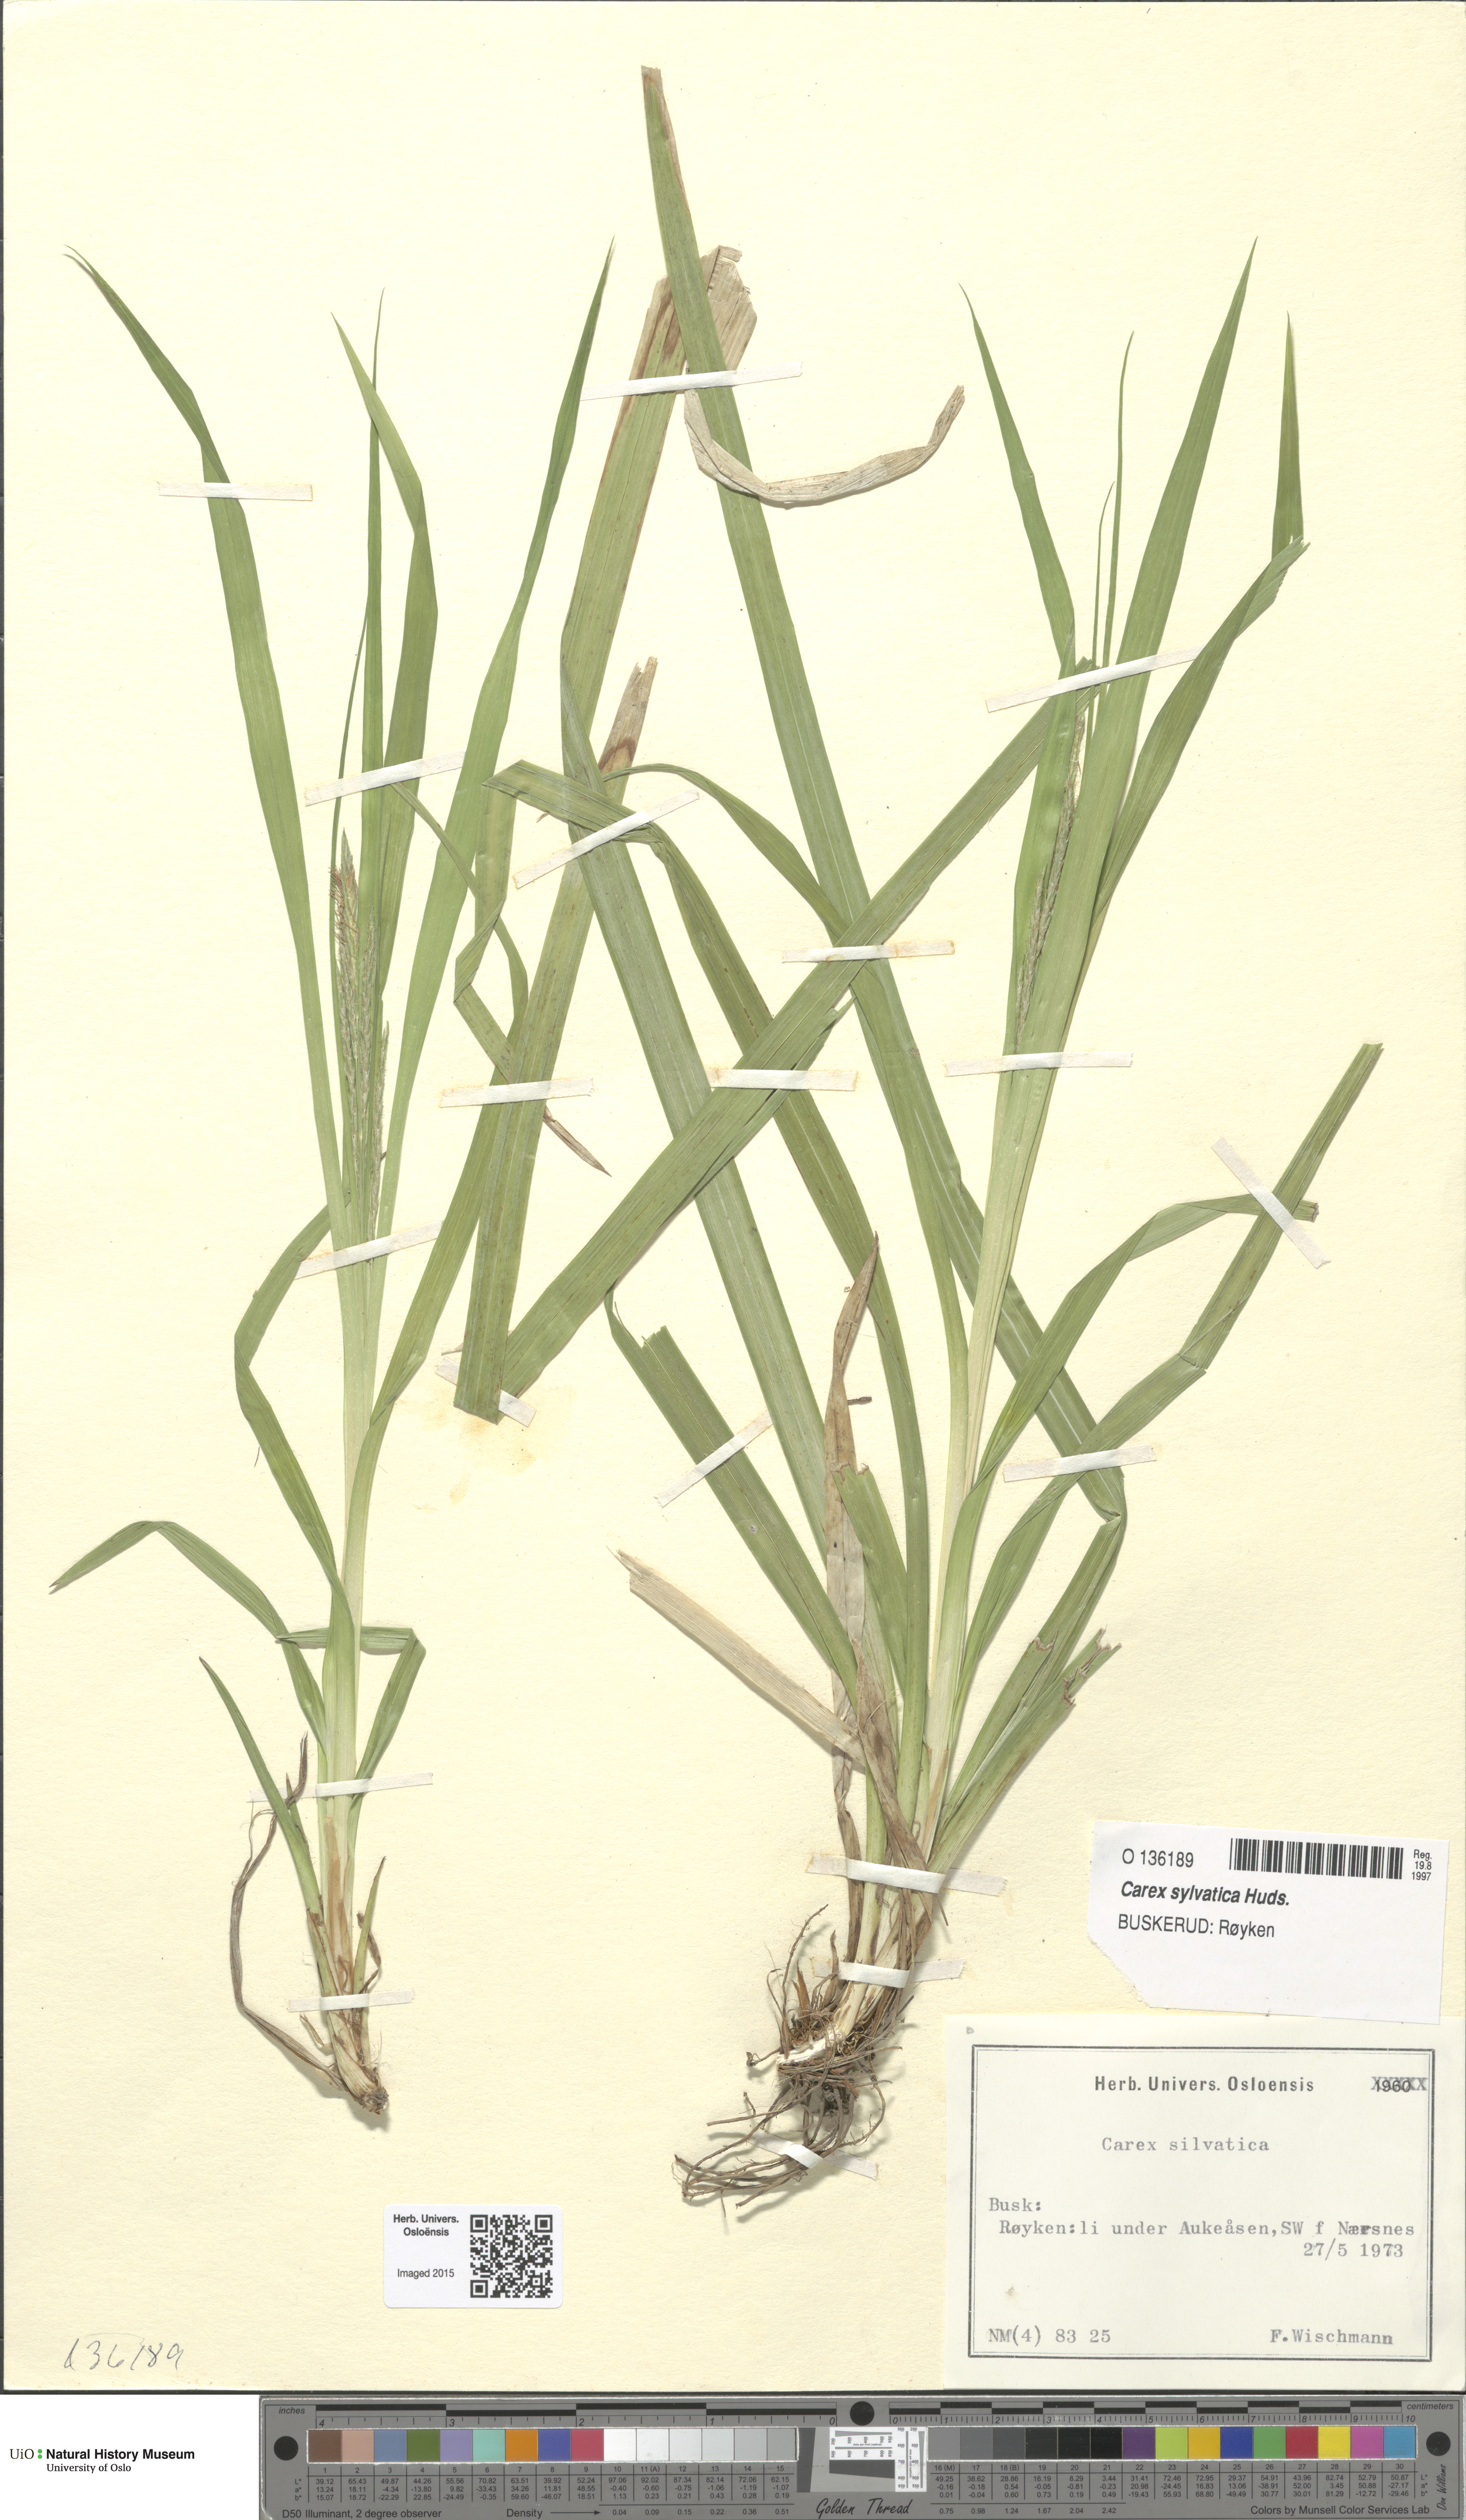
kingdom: Plantae
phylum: Tracheophyta
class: Liliopsida
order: Poales
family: Cyperaceae
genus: Carex
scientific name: Carex sylvatica
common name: Wood-sedge
